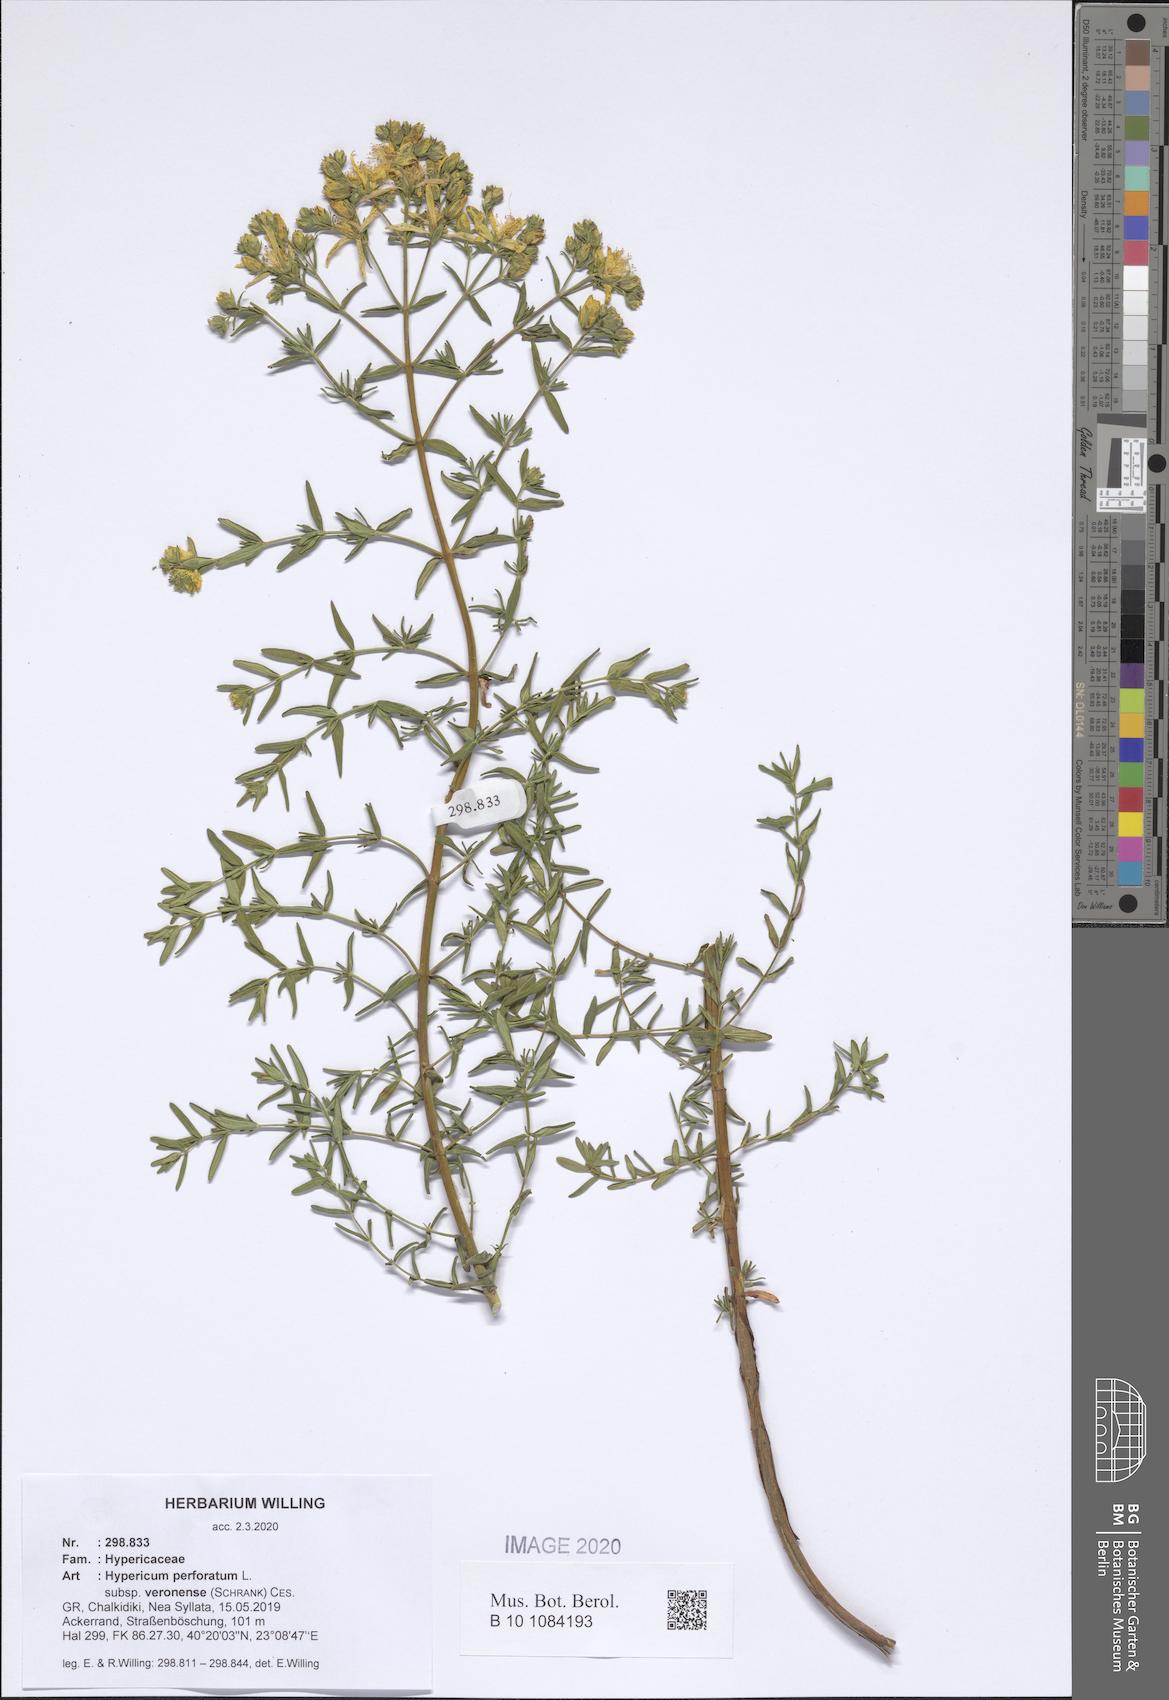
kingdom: Plantae
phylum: Tracheophyta
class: Magnoliopsida
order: Malpighiales
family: Hypericaceae
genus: Hypericum
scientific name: Hypericum veronense
